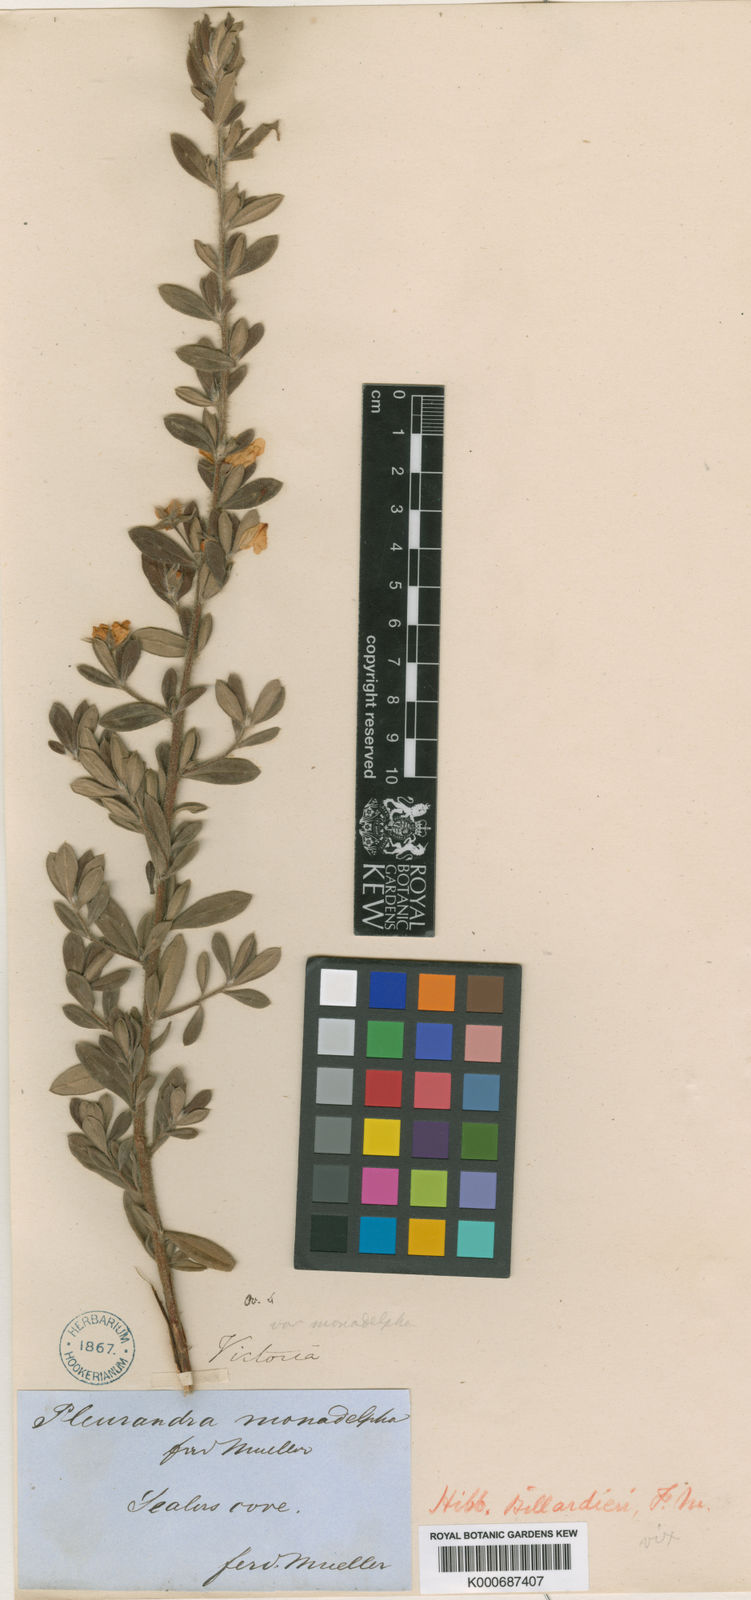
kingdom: Plantae
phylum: Tracheophyta
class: Magnoliopsida
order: Dilleniales
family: Dilleniaceae
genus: Hibbertia
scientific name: Hibbertia ovata
